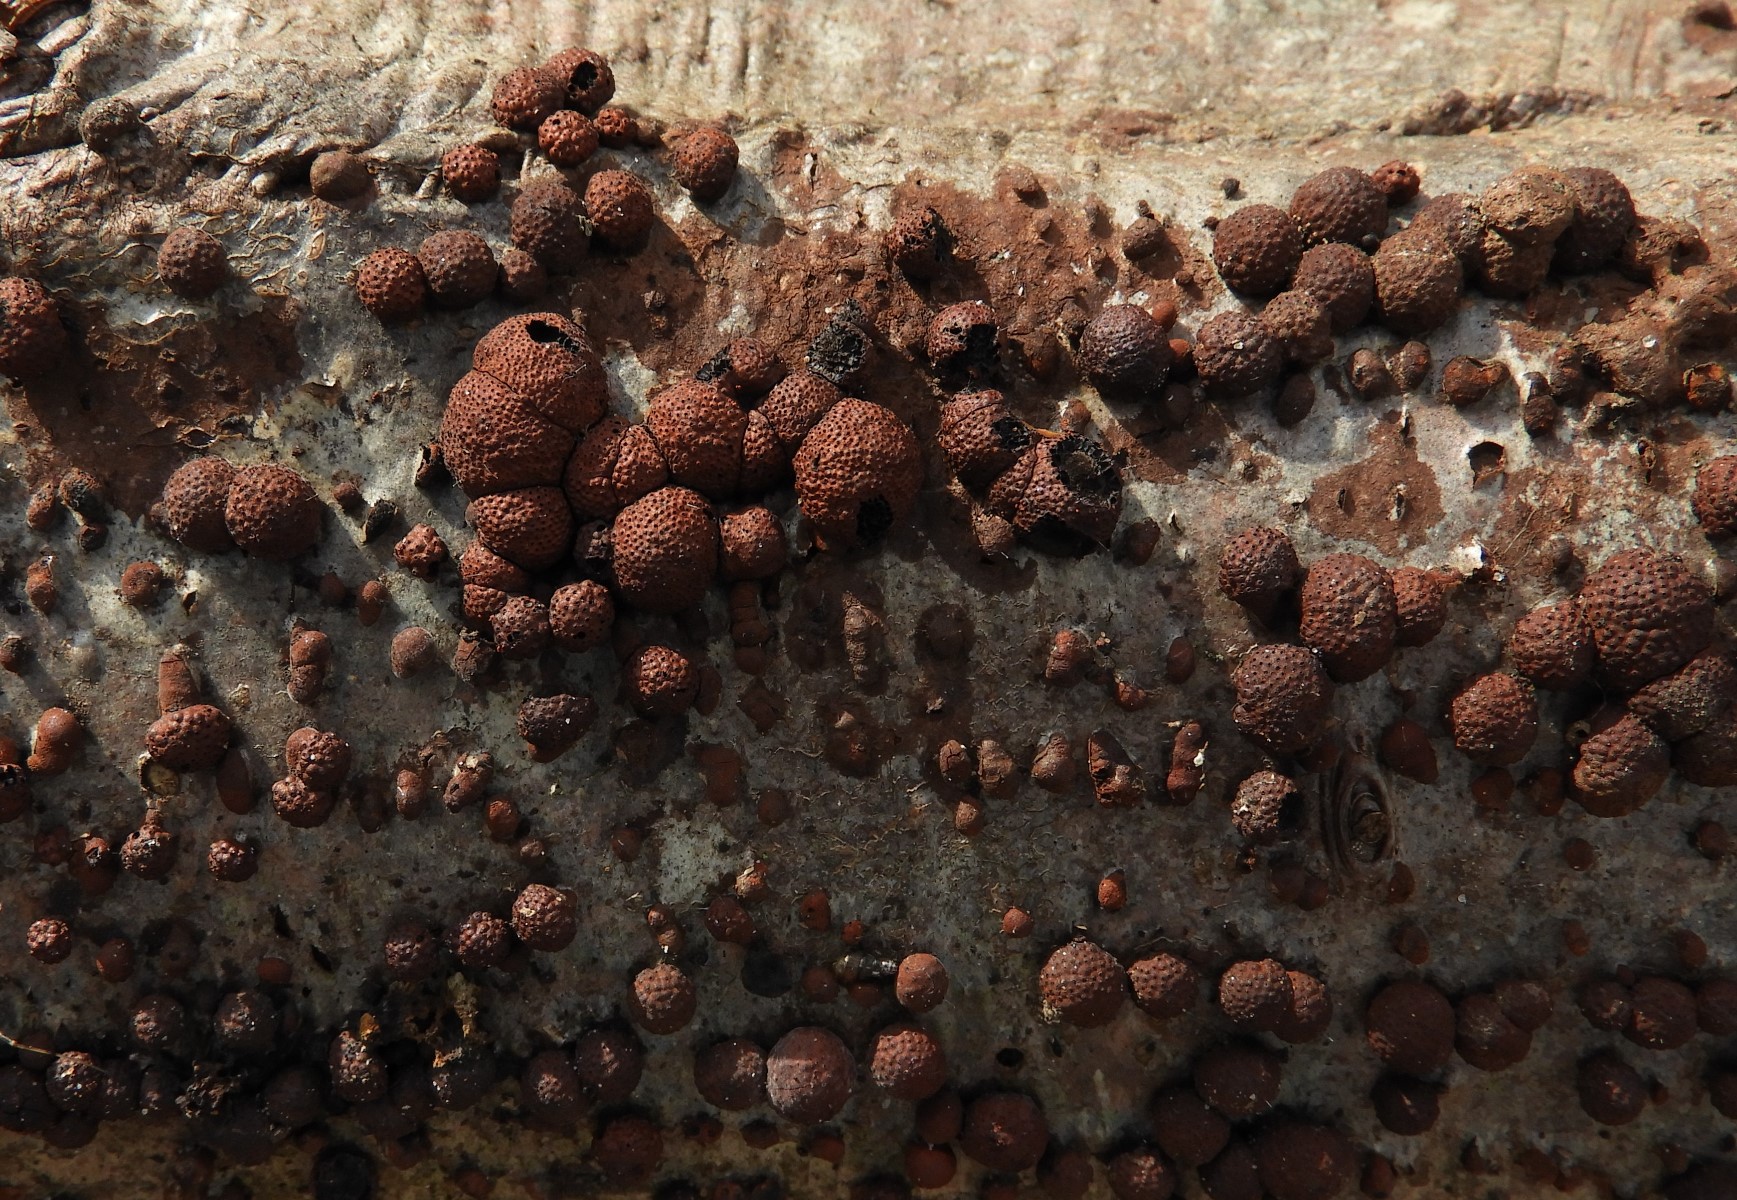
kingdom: Fungi
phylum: Ascomycota
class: Sordariomycetes
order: Xylariales
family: Hypoxylaceae
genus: Hypoxylon
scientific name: Hypoxylon fragiforme
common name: kuljordbær
